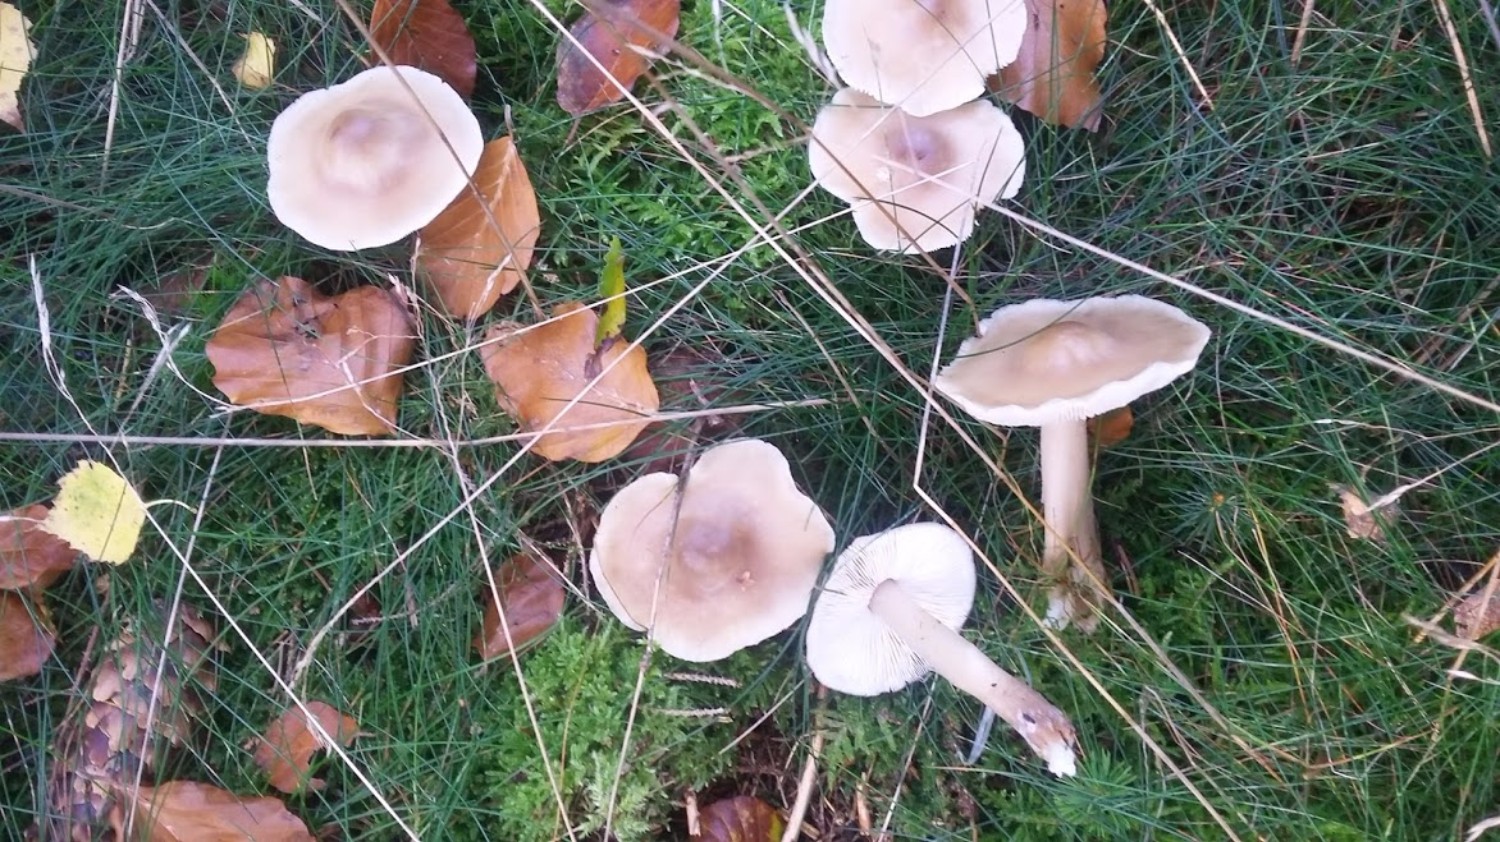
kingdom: Fungi
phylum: Basidiomycota
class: Agaricomycetes
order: Agaricales
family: Omphalotaceae
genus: Rhodocollybia
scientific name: Rhodocollybia asema
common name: horngrå fladhat
